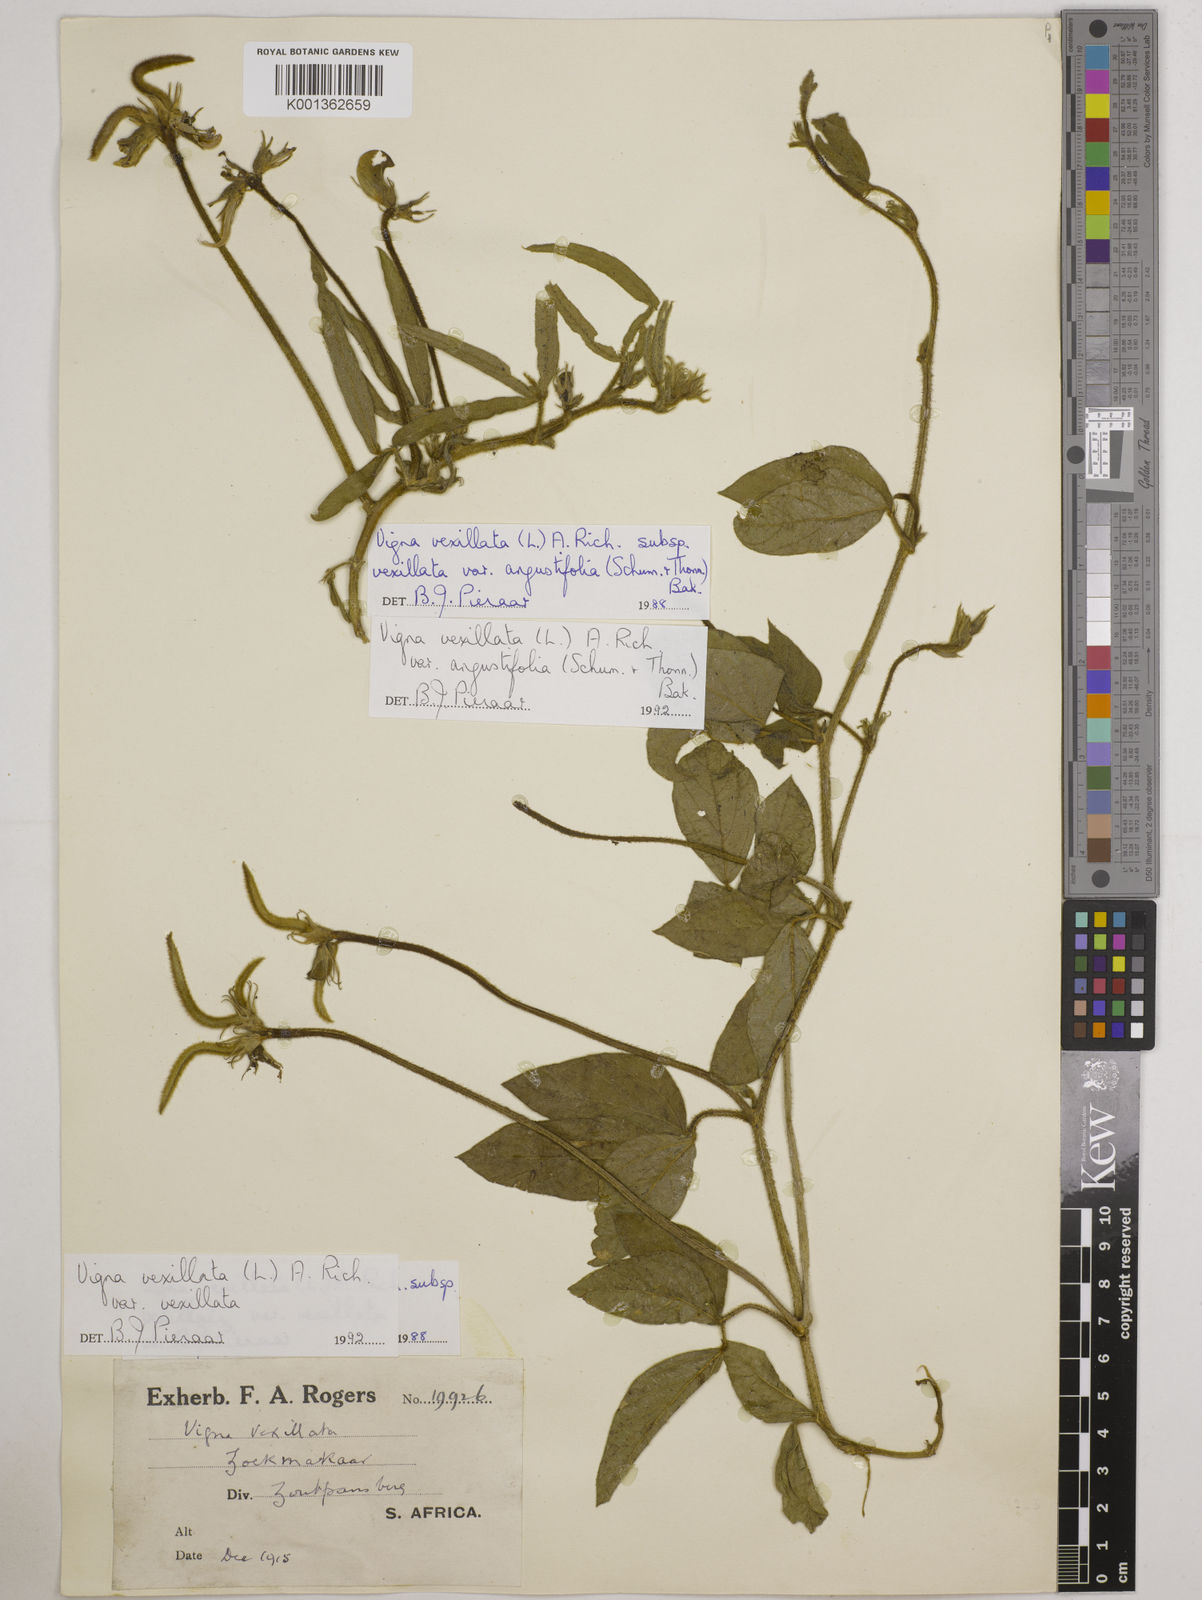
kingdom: Plantae
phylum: Tracheophyta
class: Magnoliopsida
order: Fabales
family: Fabaceae
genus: Vigna
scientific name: Vigna
